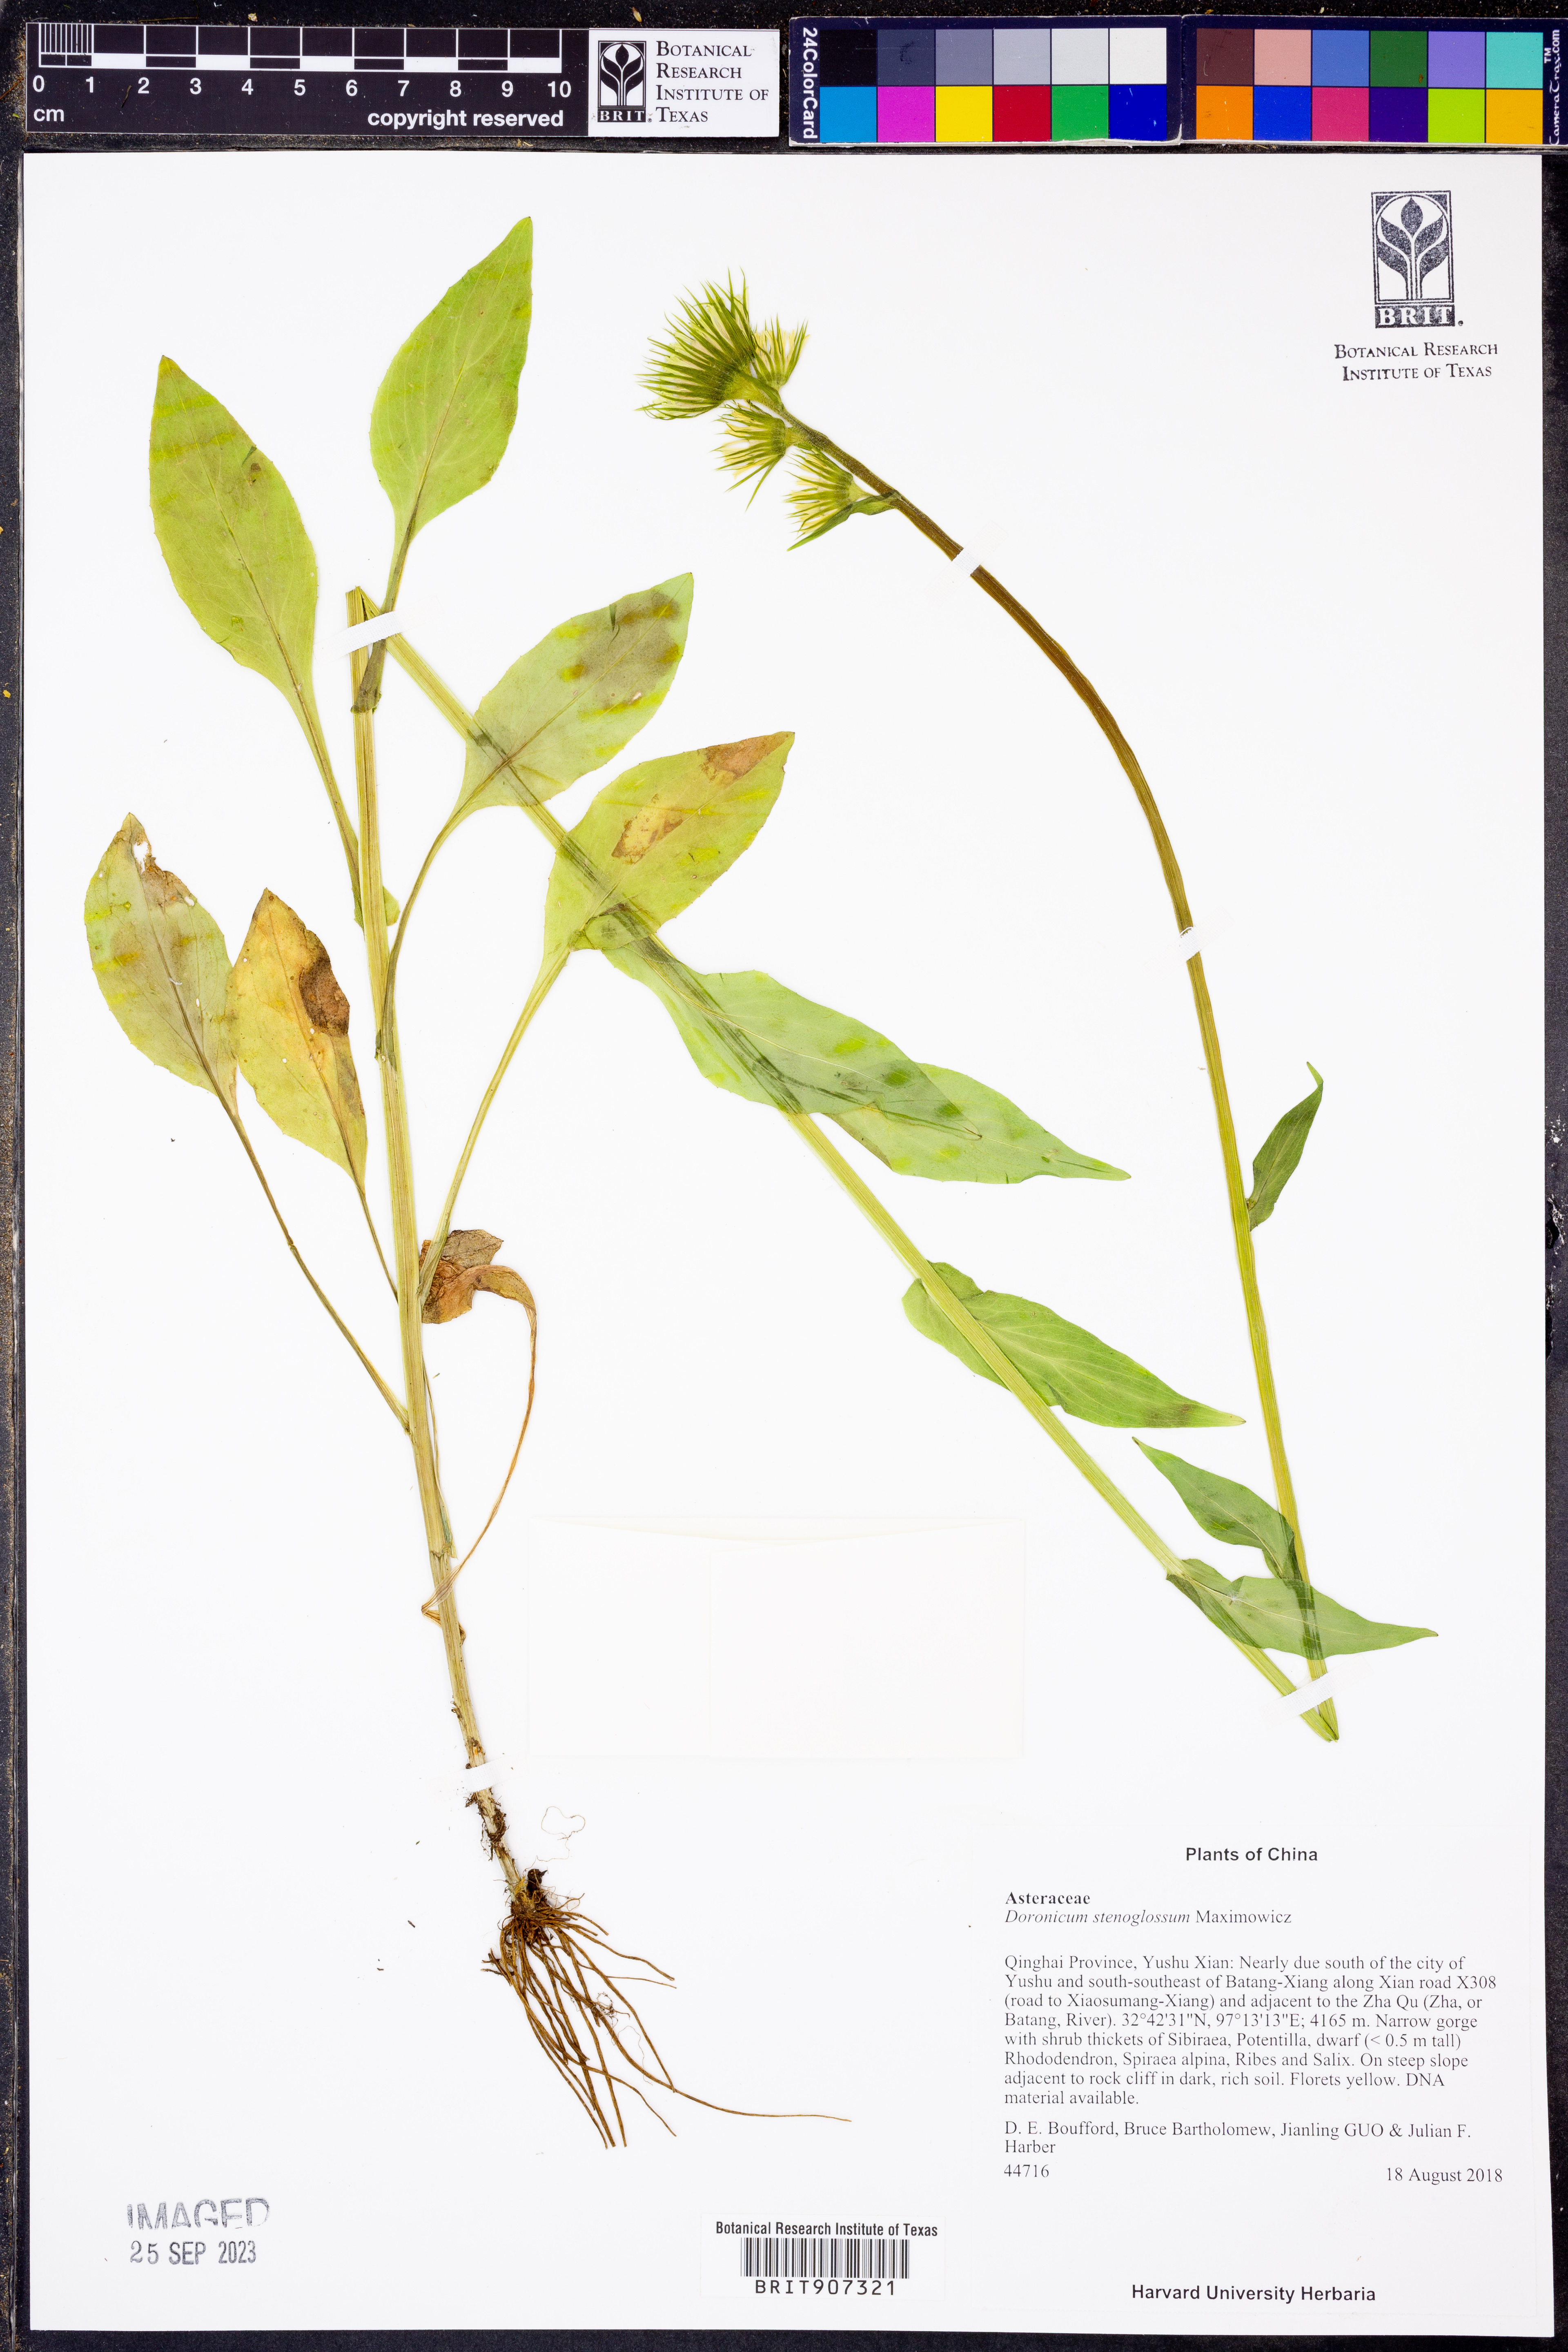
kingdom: Plantae
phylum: Tracheophyta
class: Magnoliopsida
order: Asterales
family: Asteraceae
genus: Doronicum
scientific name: Doronicum stenoglossum
